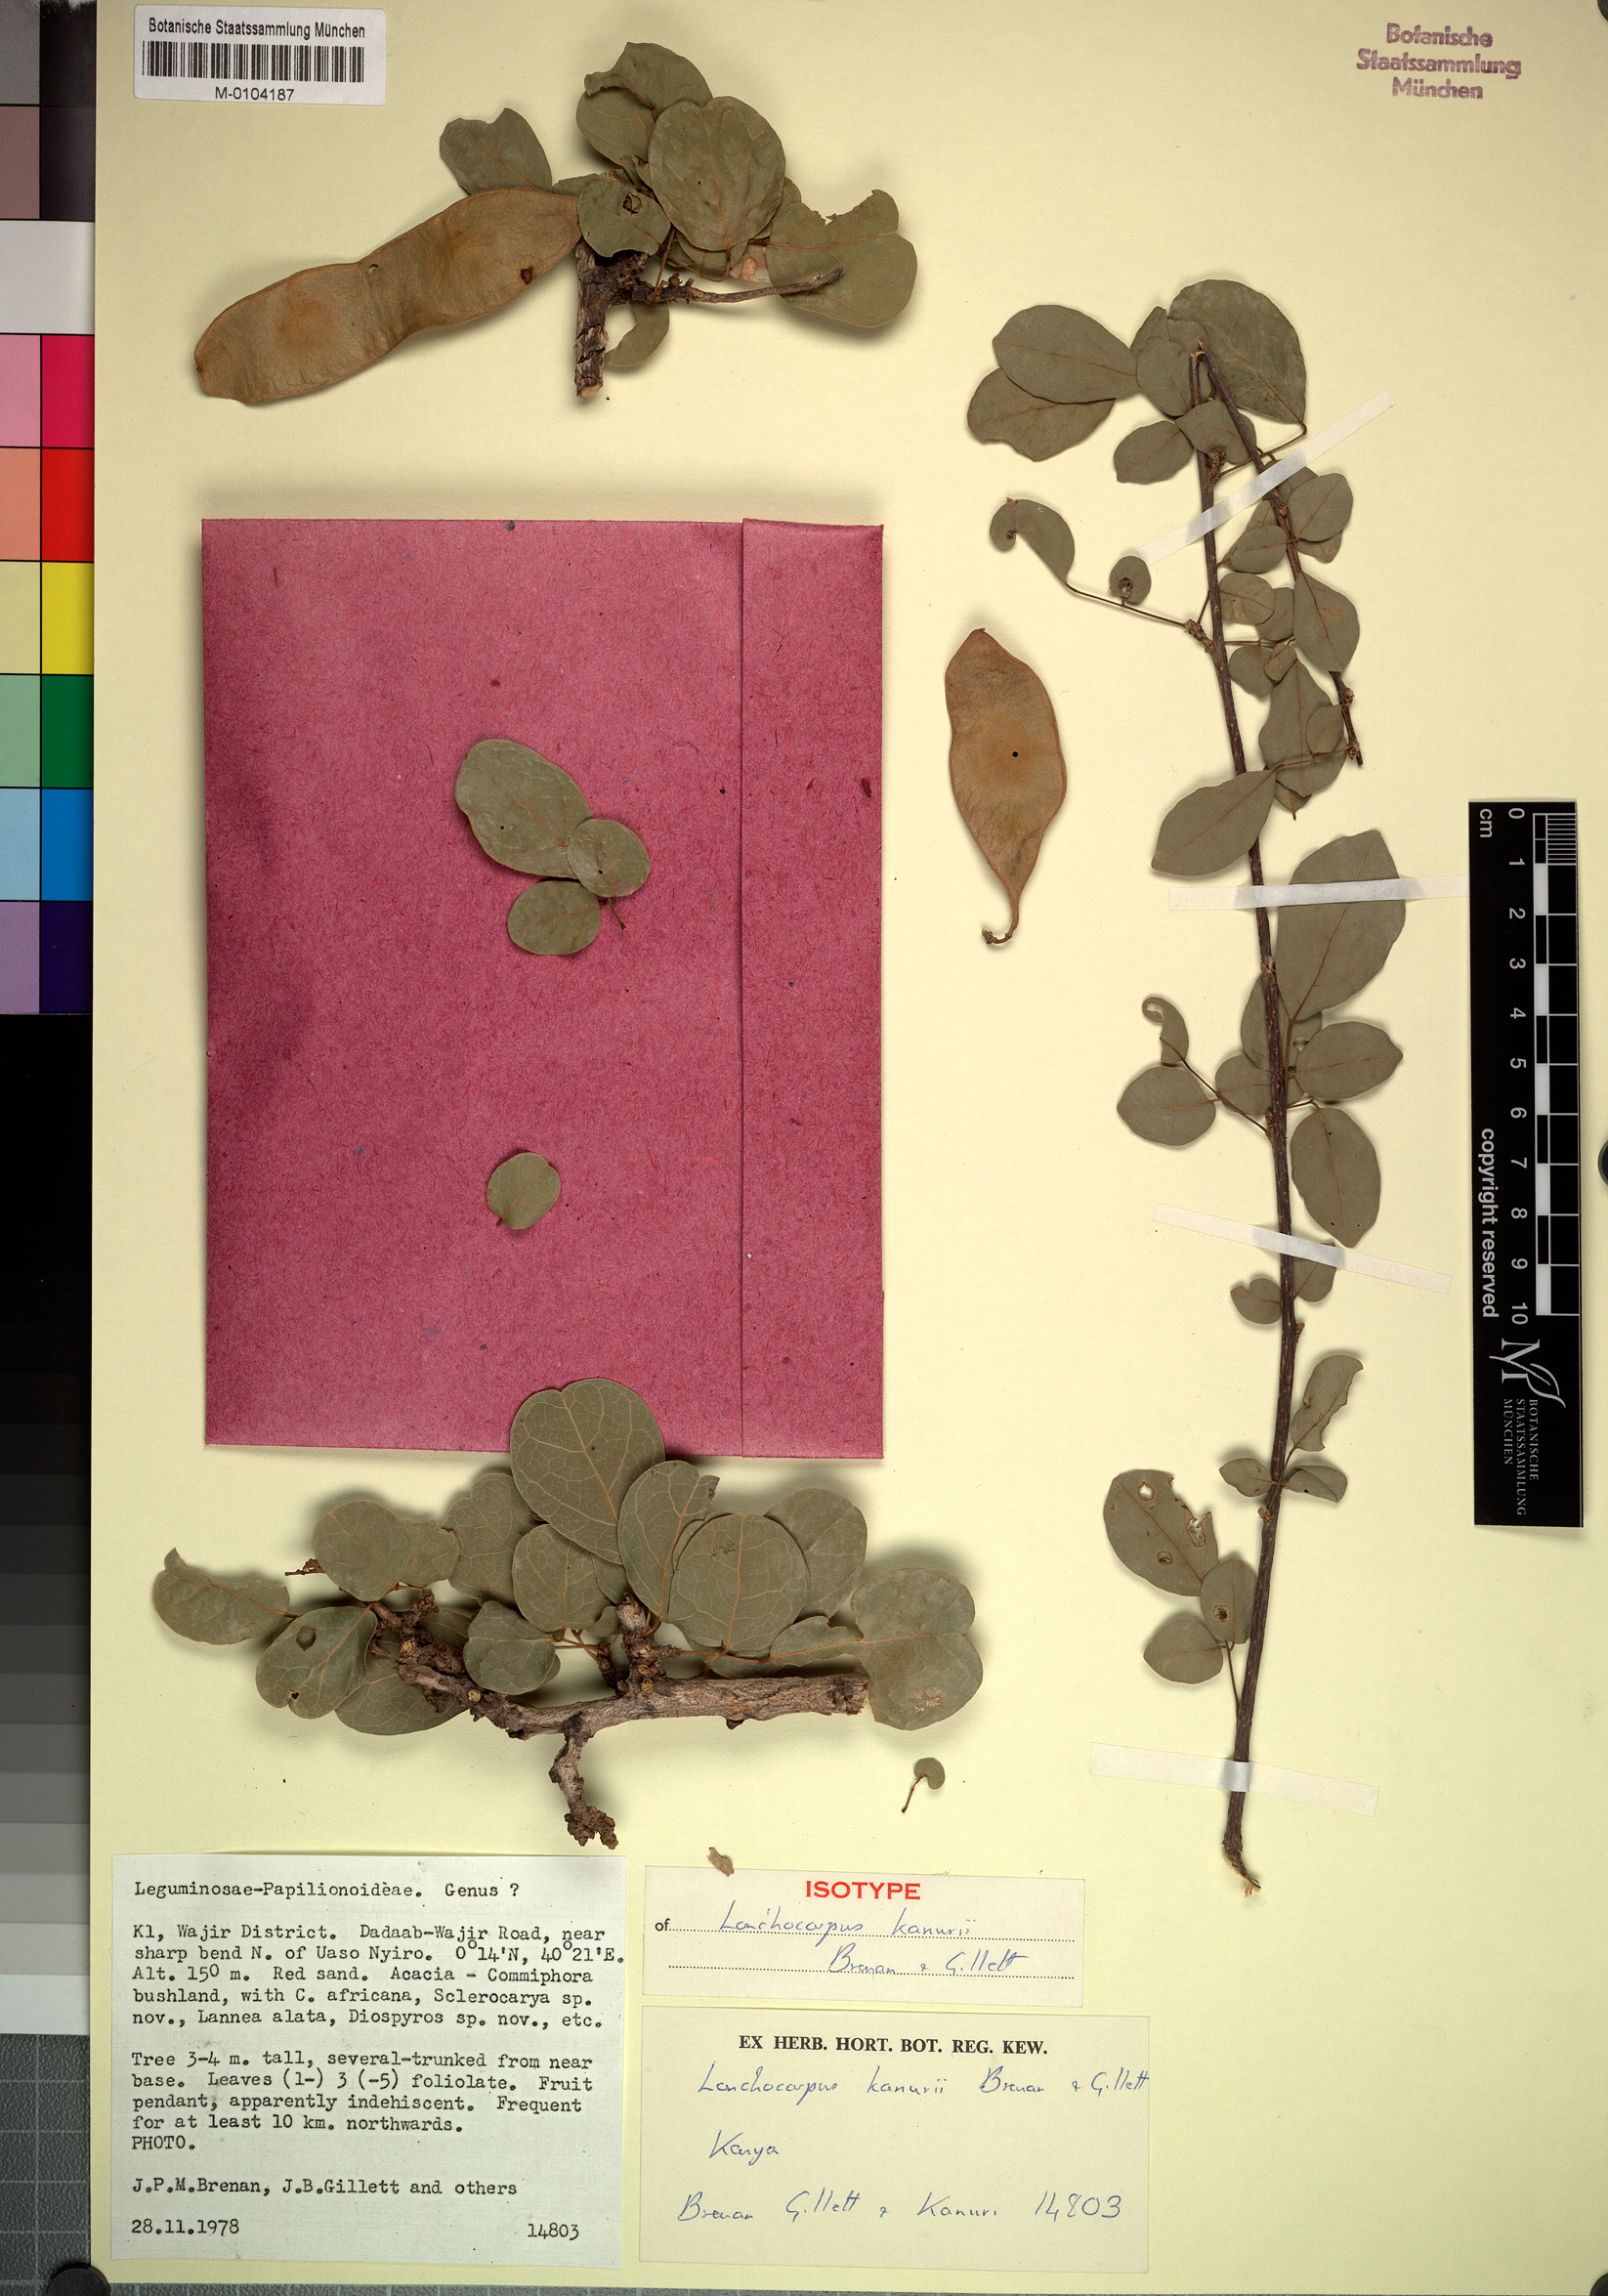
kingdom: Plantae
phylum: Tracheophyta
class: Magnoliopsida
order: Fabales
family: Fabaceae
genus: Philenoptera
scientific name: Philenoptera kanurii
